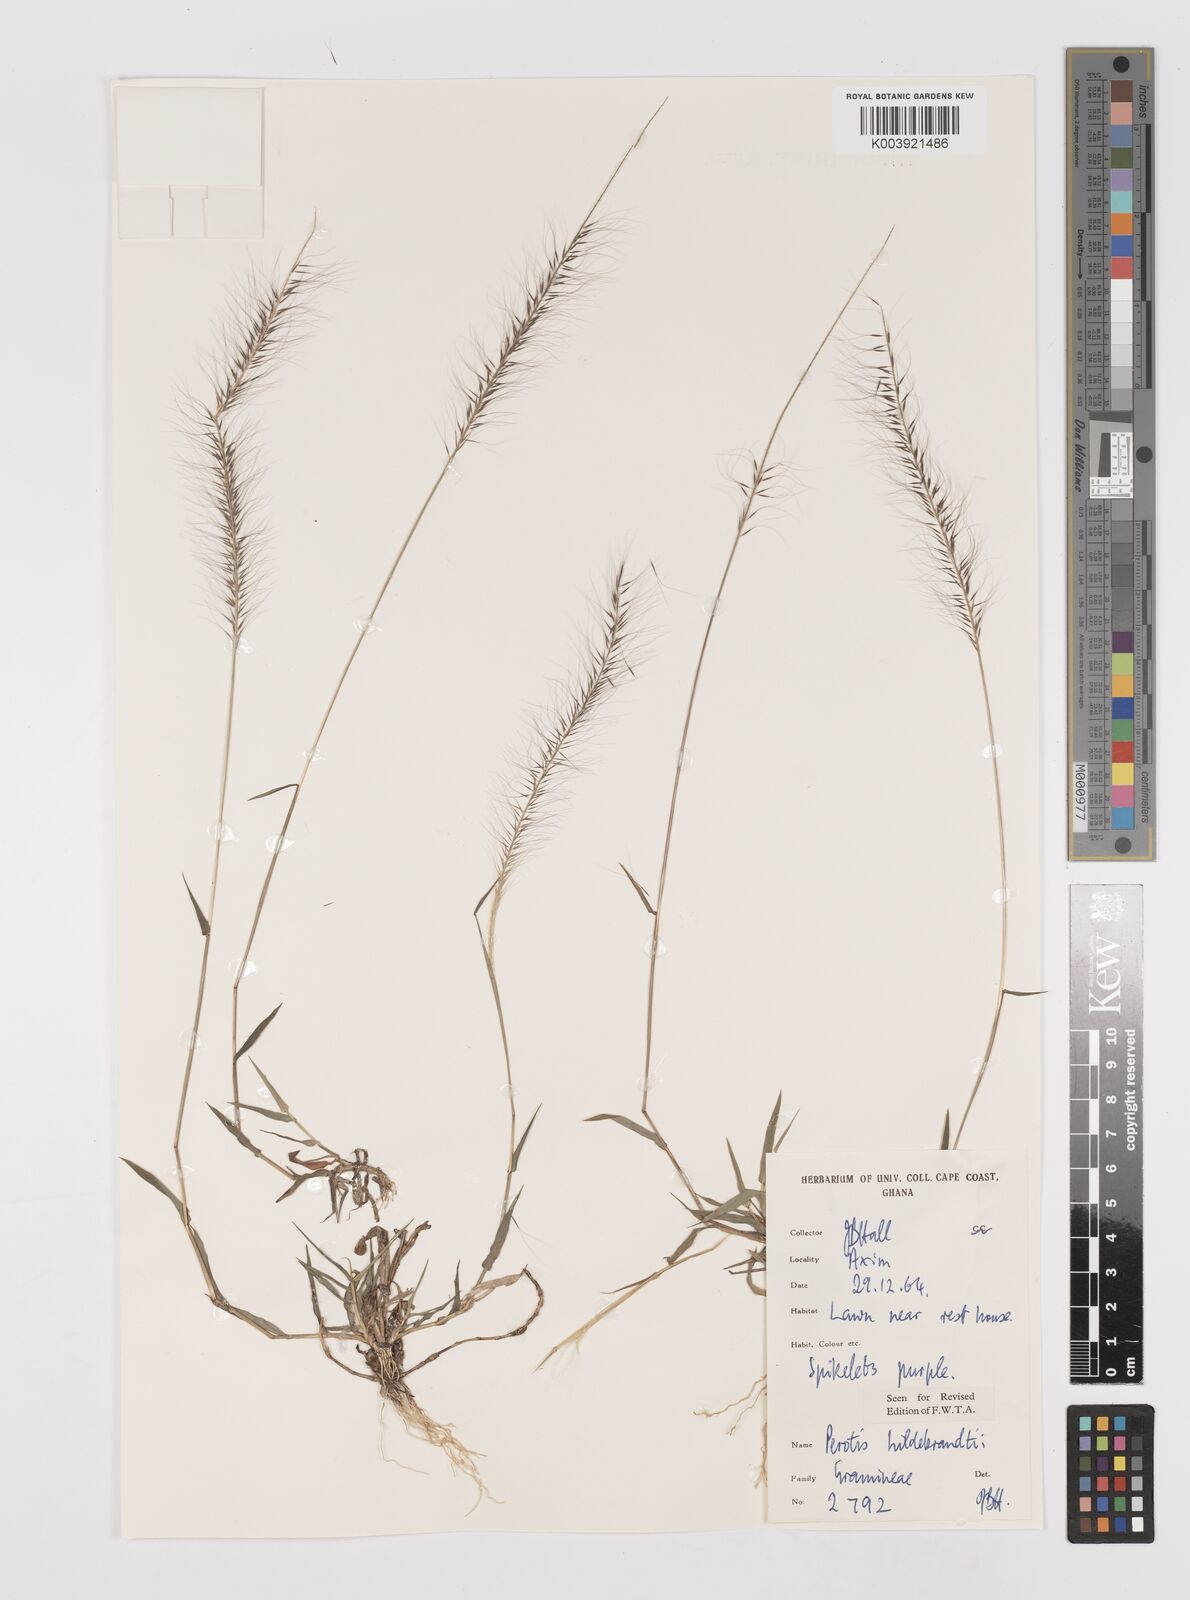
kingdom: Plantae
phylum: Tracheophyta
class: Liliopsida
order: Poales
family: Poaceae
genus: Perotis
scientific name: Perotis hildebrandtii
